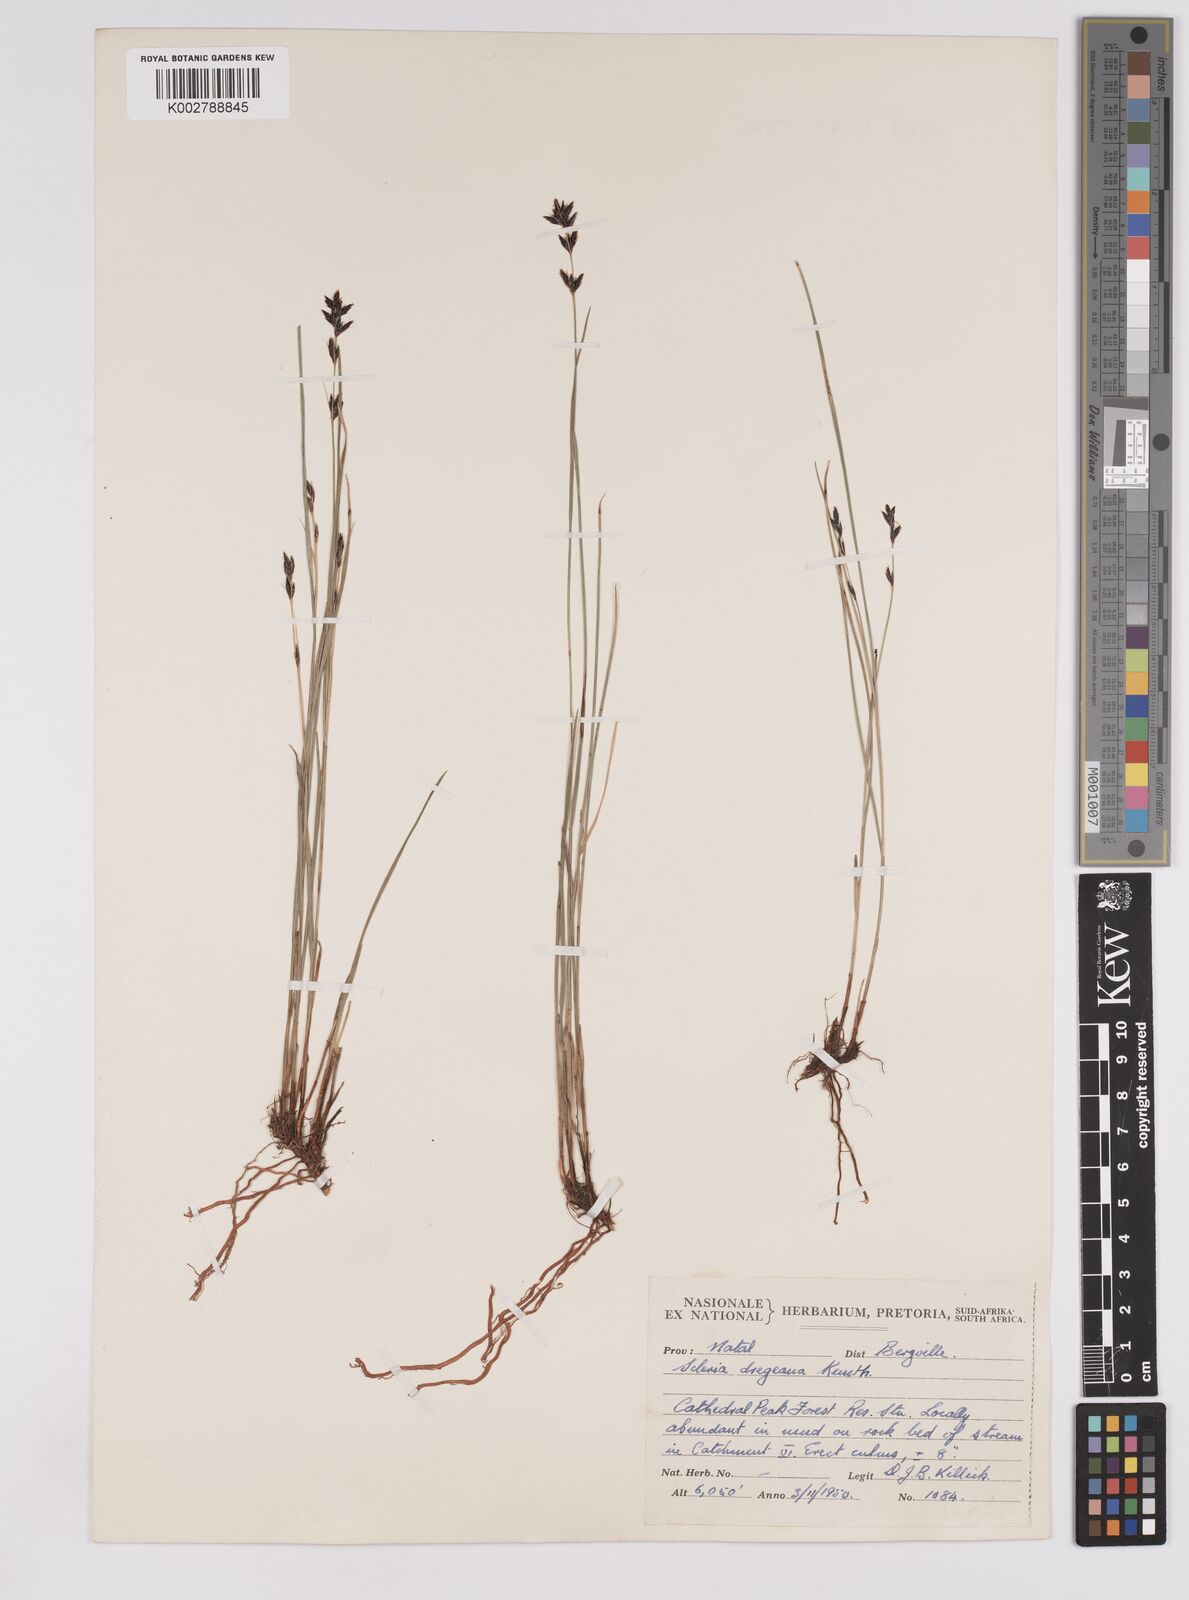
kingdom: Plantae
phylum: Tracheophyta
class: Liliopsida
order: Poales
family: Cyperaceae
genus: Scleria
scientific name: Scleria dregeana
